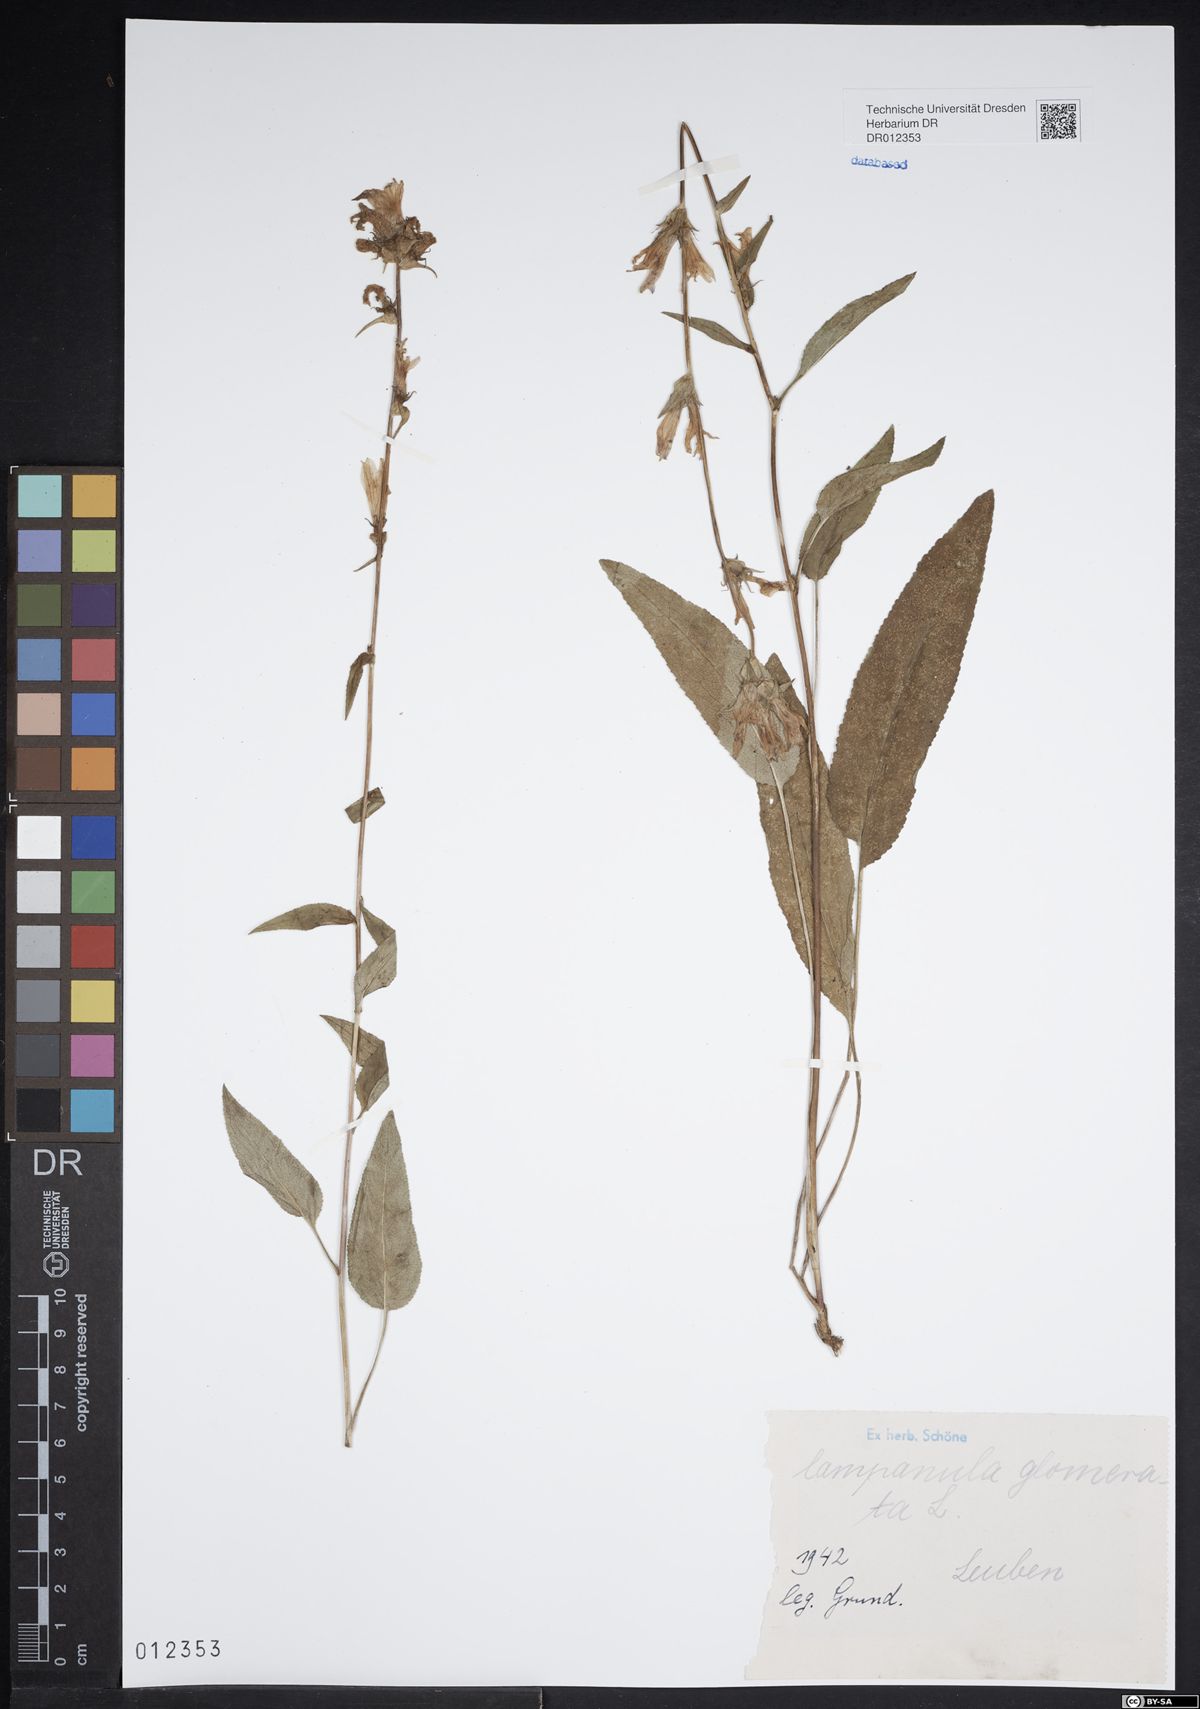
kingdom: Plantae
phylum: Tracheophyta
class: Magnoliopsida
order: Asterales
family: Campanulaceae
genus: Campanula
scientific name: Campanula glomerata
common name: Clustered bellflower
